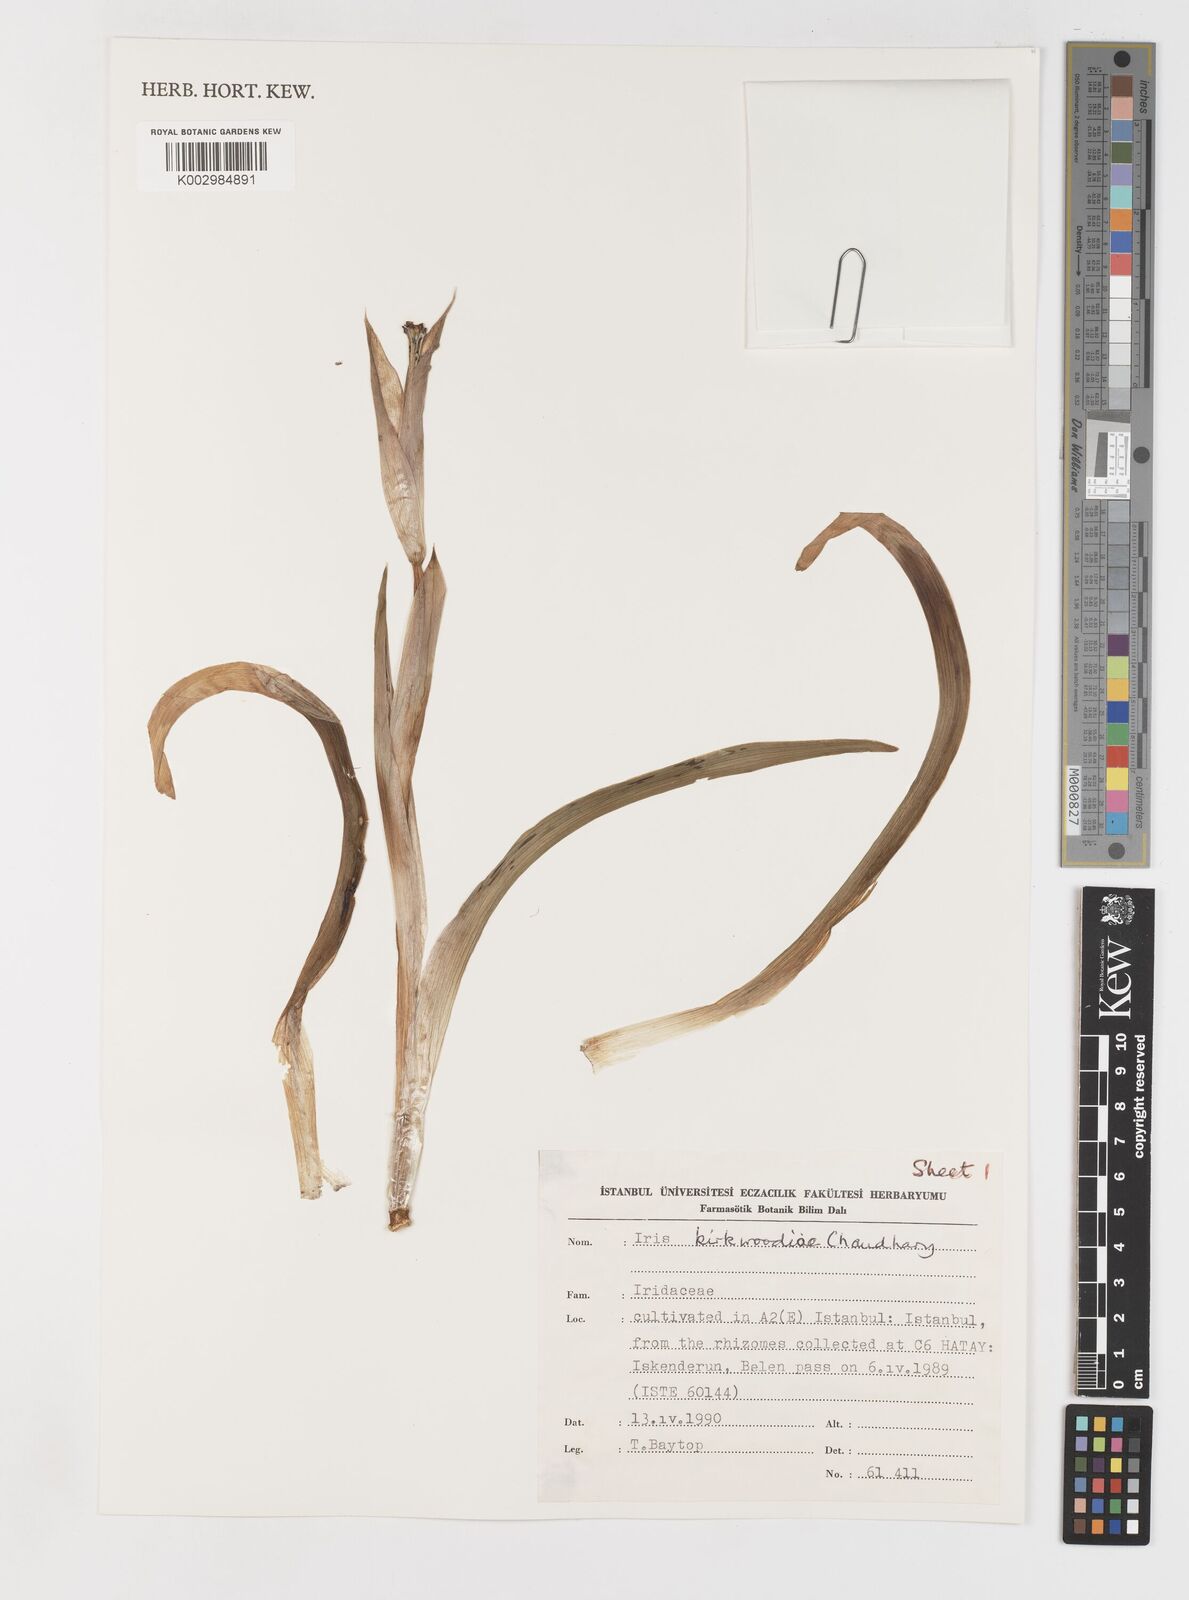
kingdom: Plantae
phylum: Tracheophyta
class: Liliopsida
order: Asparagales
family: Iridaceae
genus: Iris
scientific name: Iris kirkwoodiae
